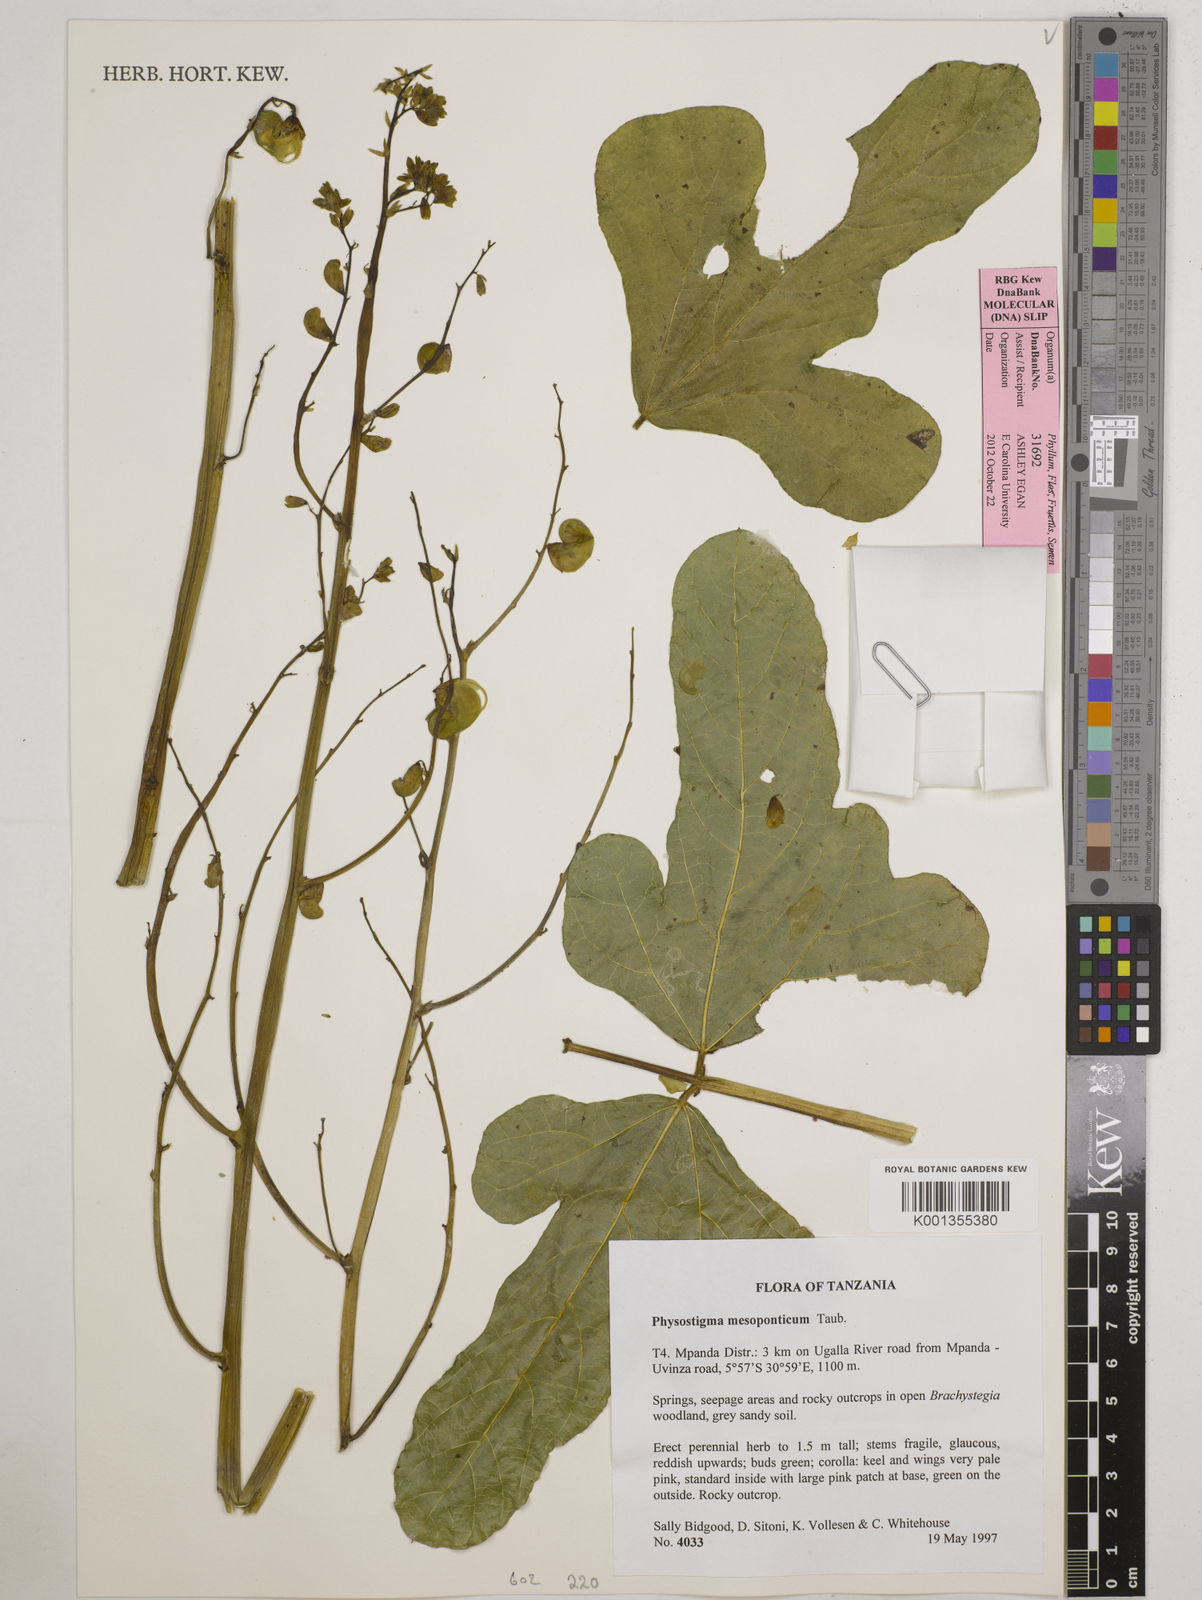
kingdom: Plantae
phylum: Tracheophyta
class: Magnoliopsida
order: Fabales
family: Fabaceae
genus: Physostigma
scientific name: Physostigma mesoponticum
